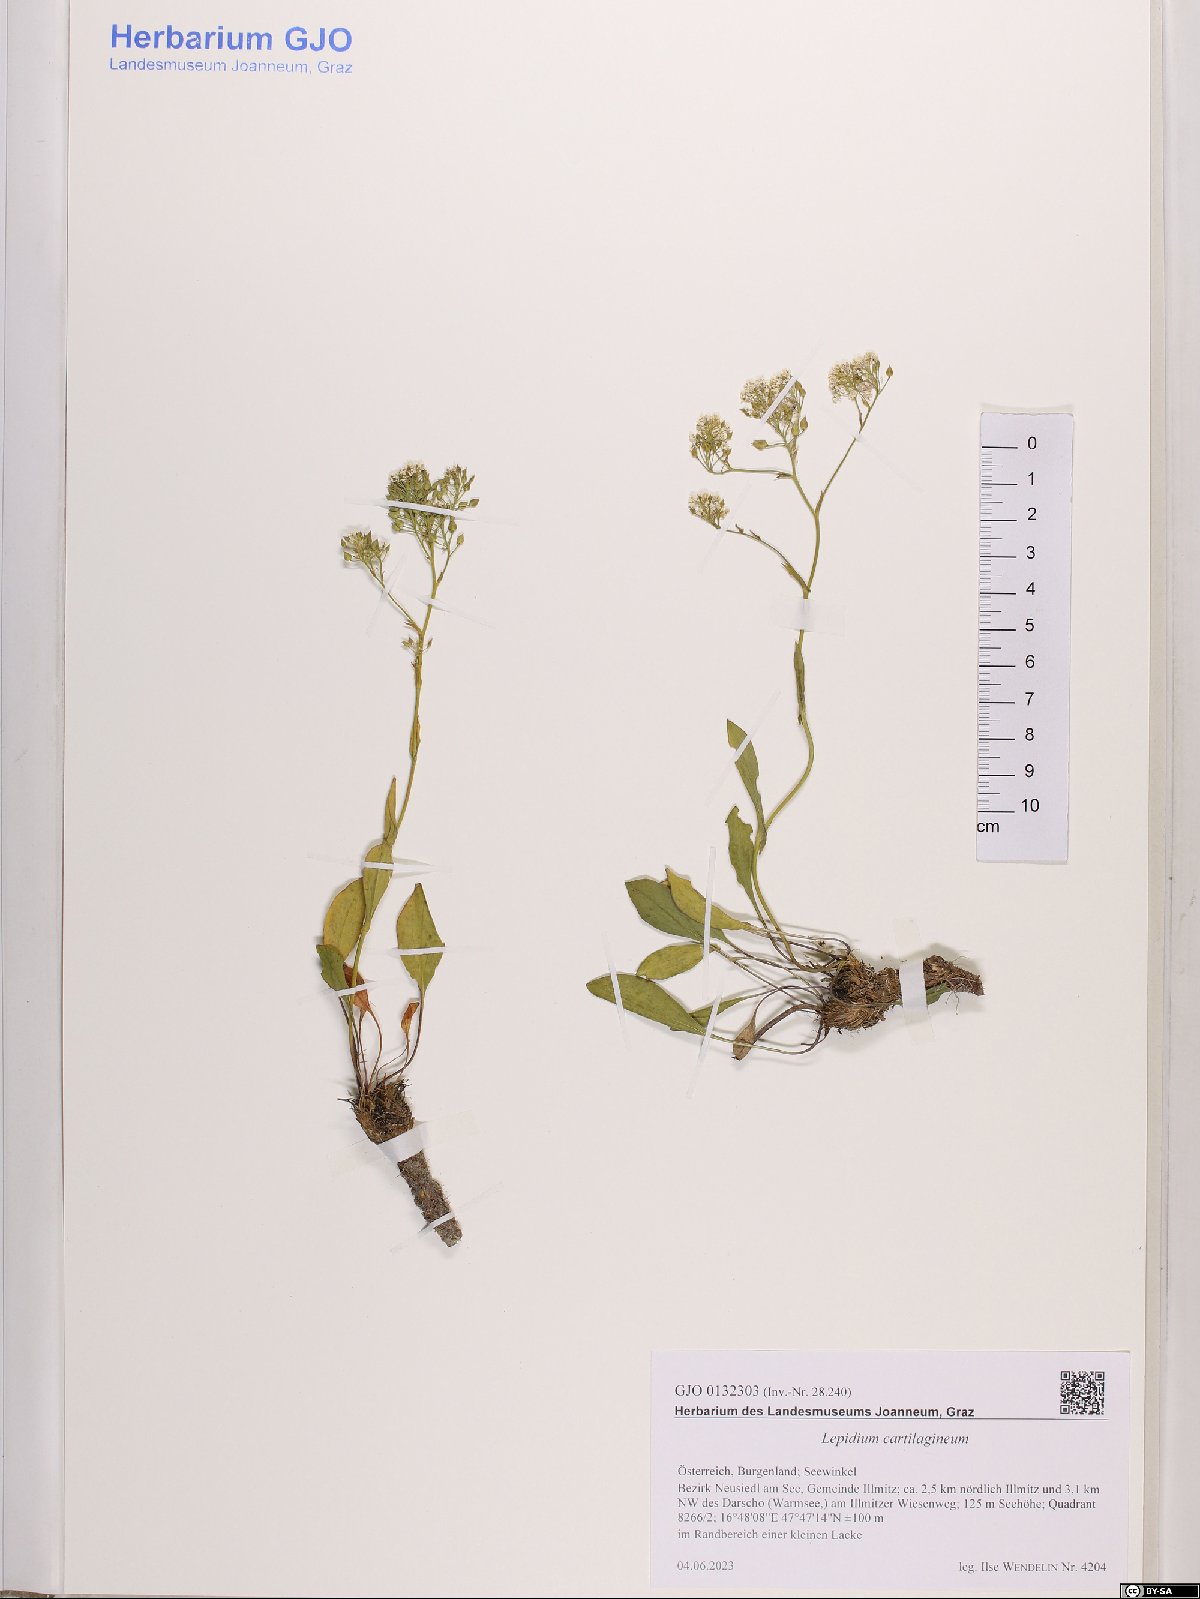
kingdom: Plantae
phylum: Tracheophyta
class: Magnoliopsida
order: Brassicales
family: Brassicaceae
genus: Lepidium
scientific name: Lepidium cartilagineum
